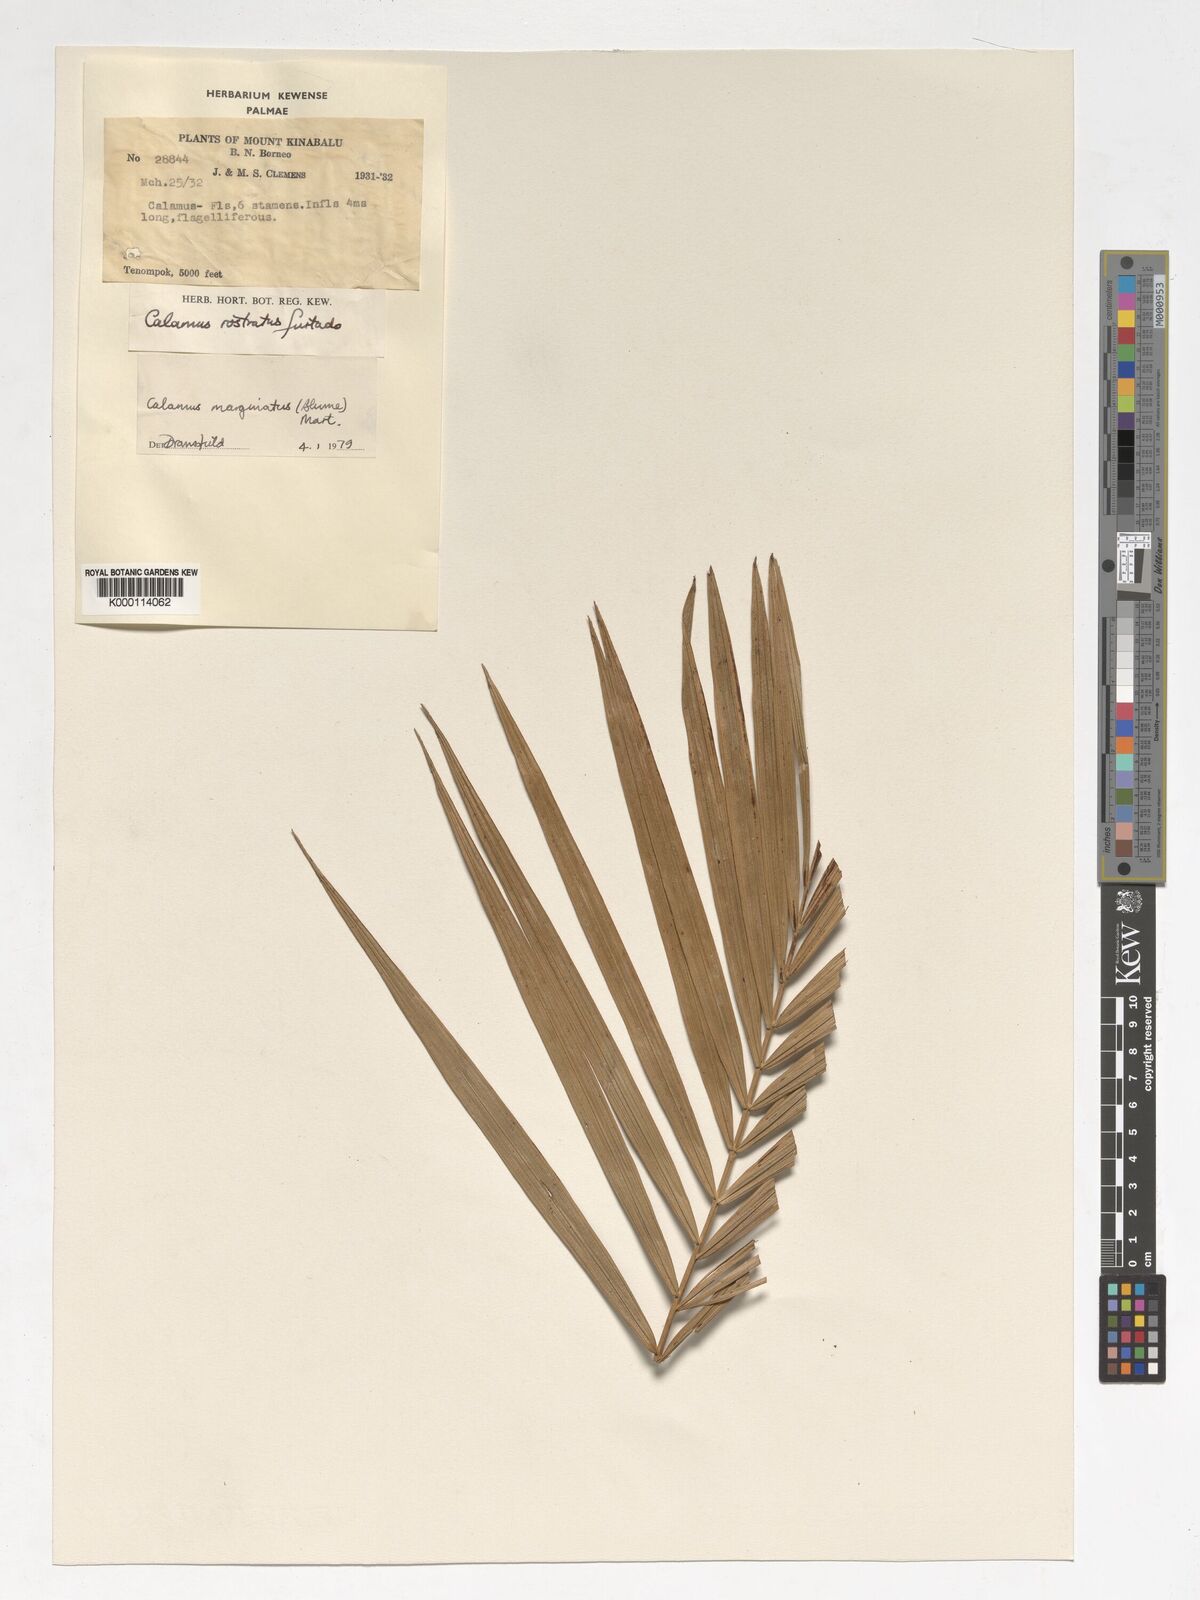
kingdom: Plantae
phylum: Tracheophyta
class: Liliopsida
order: Arecales
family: Arecaceae
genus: Calamus
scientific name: Calamus
